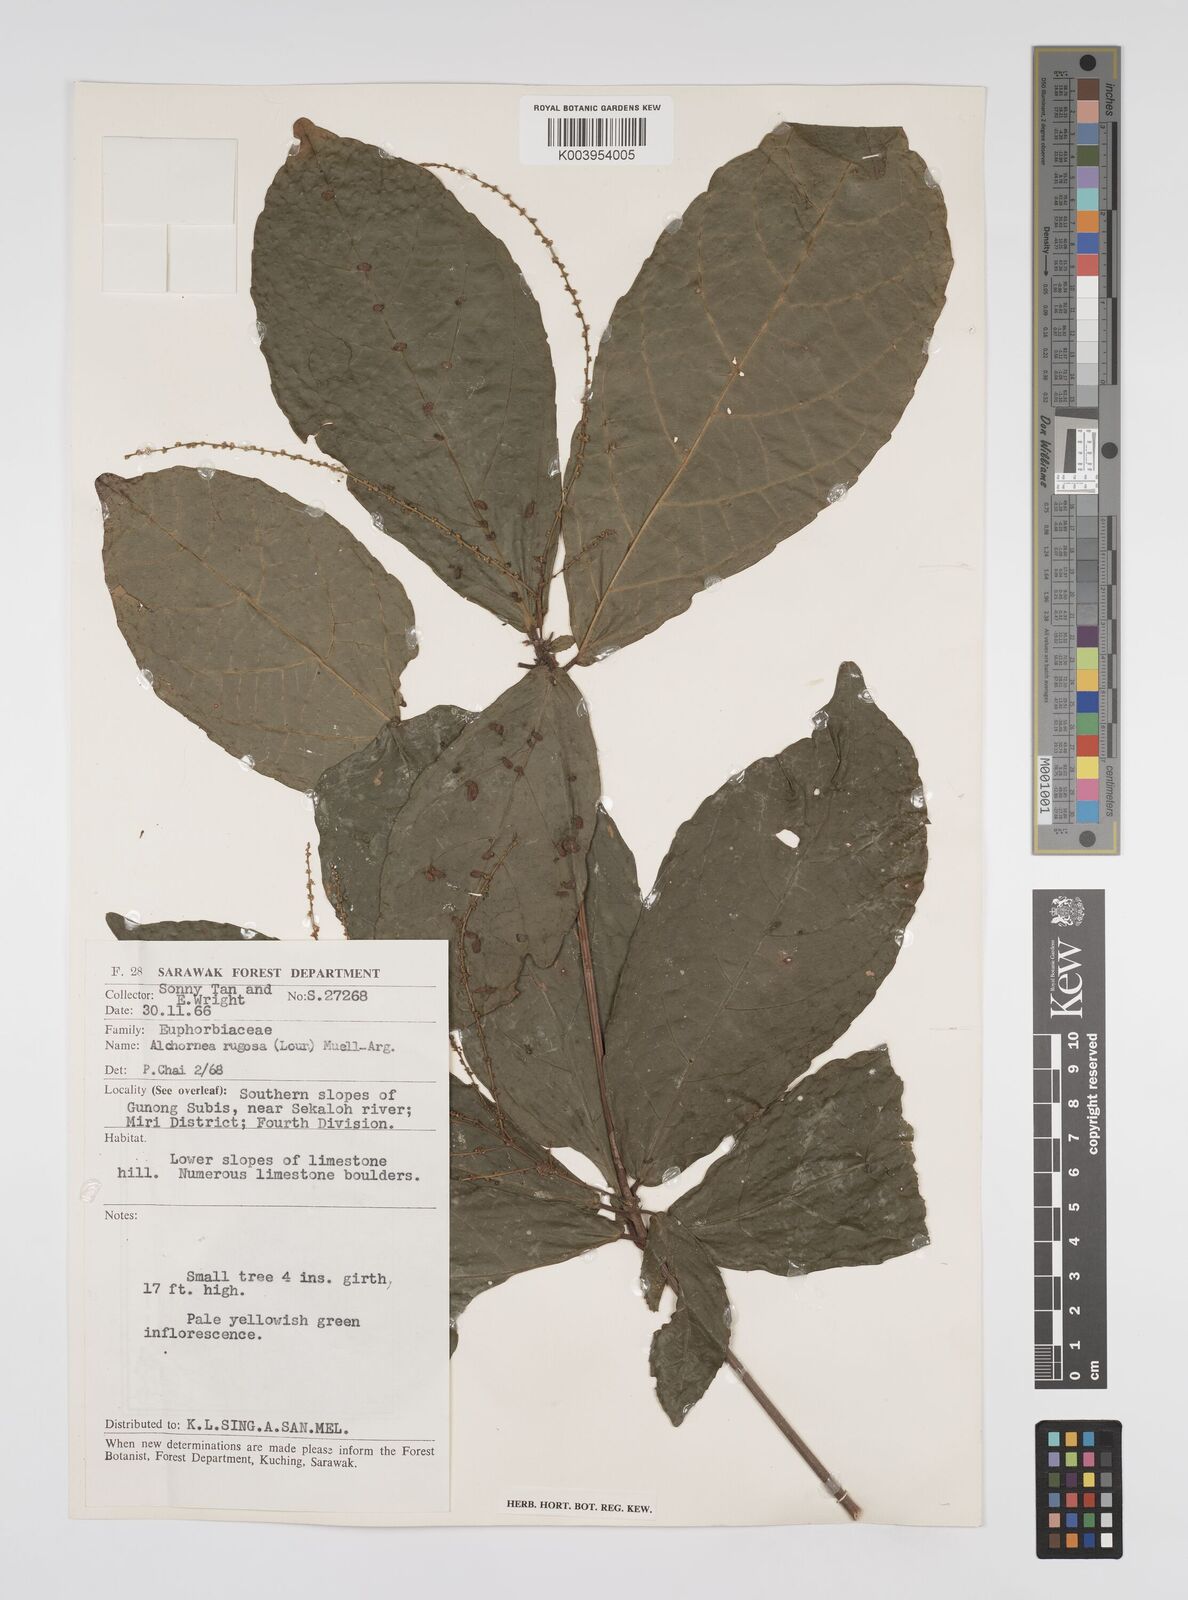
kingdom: Plantae
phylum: Tracheophyta
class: Magnoliopsida
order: Malpighiales
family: Euphorbiaceae
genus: Alchornea
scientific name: Alchornea rugosa
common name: Alchorntree
